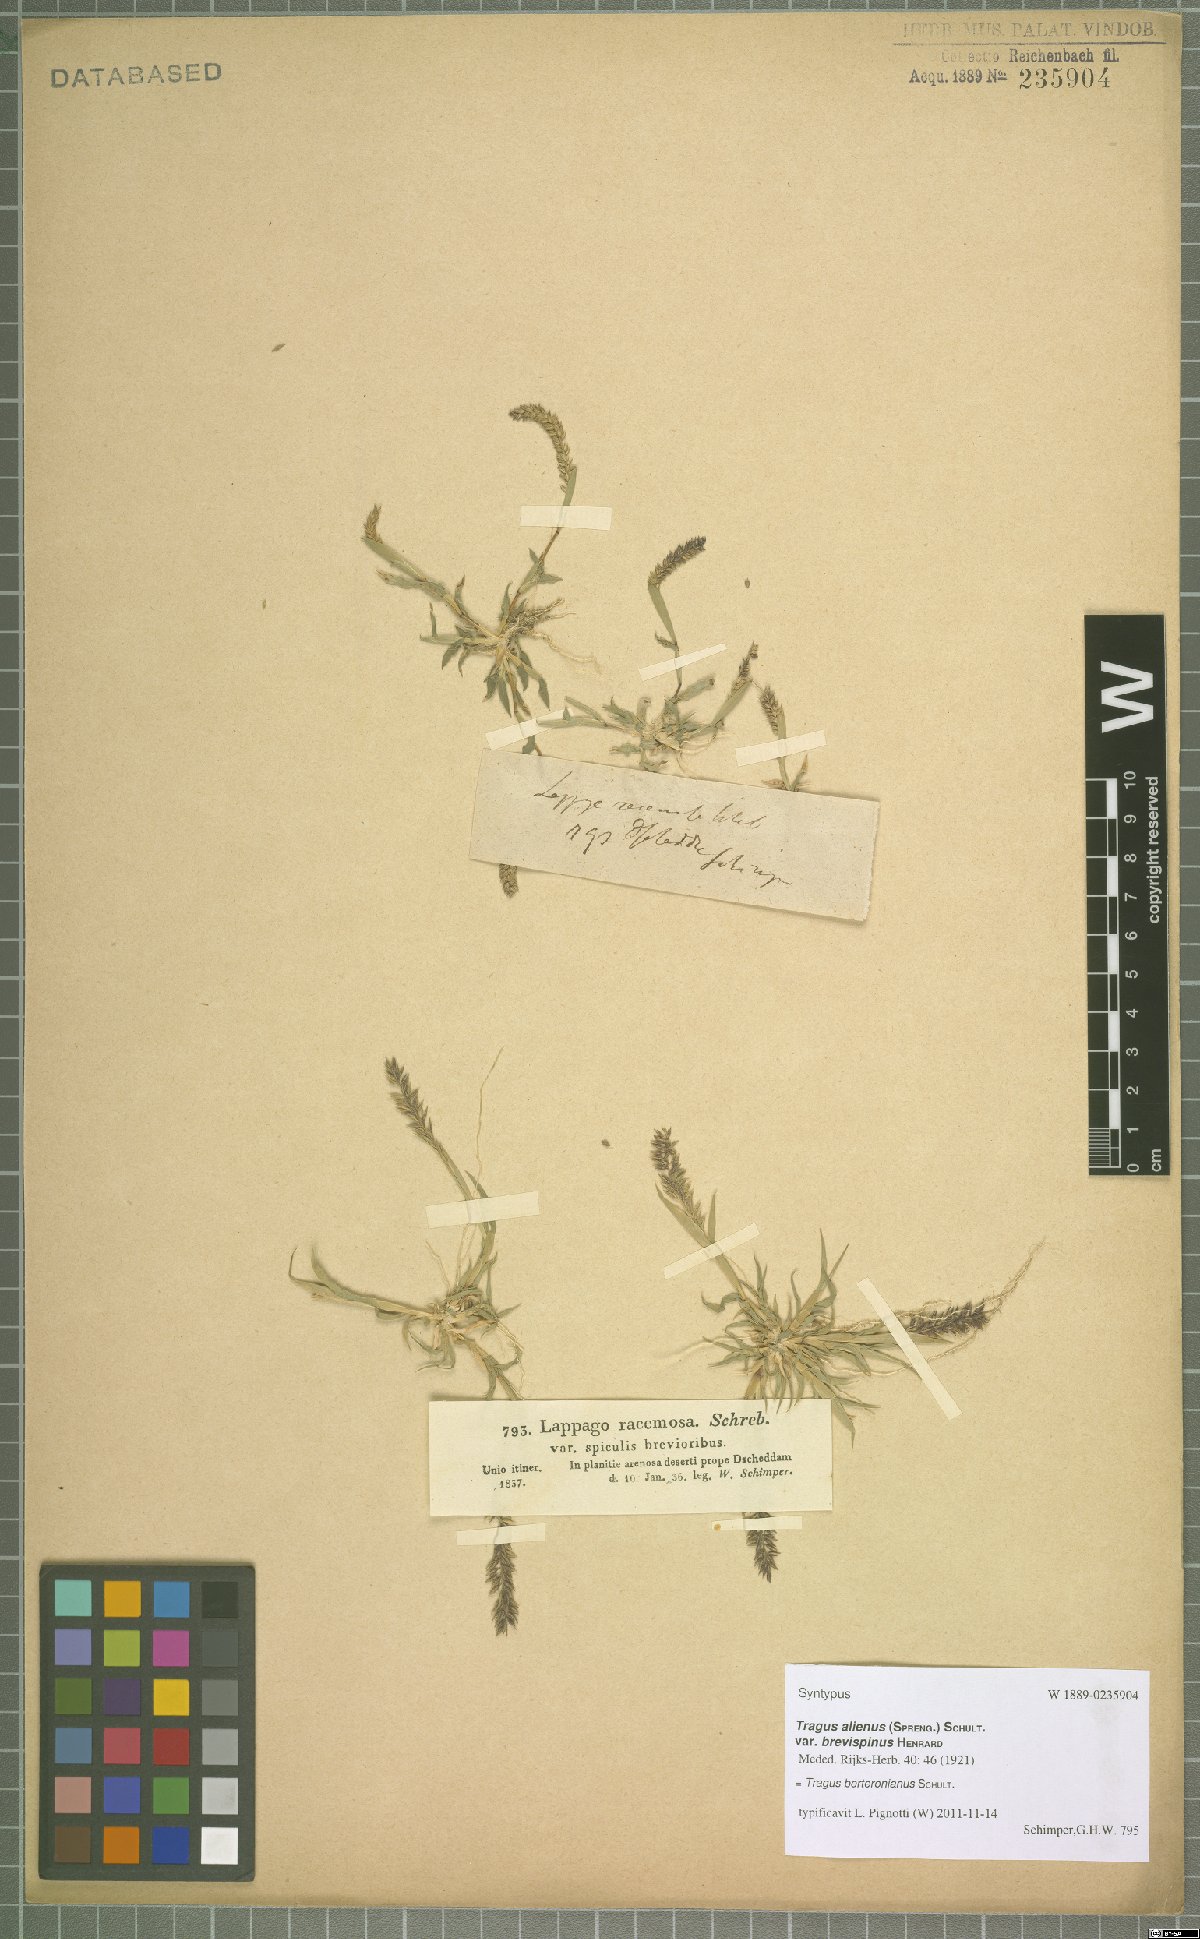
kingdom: Plantae
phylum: Tracheophyta
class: Liliopsida
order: Poales
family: Poaceae
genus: Tragus
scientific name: Tragus berteronianus
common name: African bur-grass
